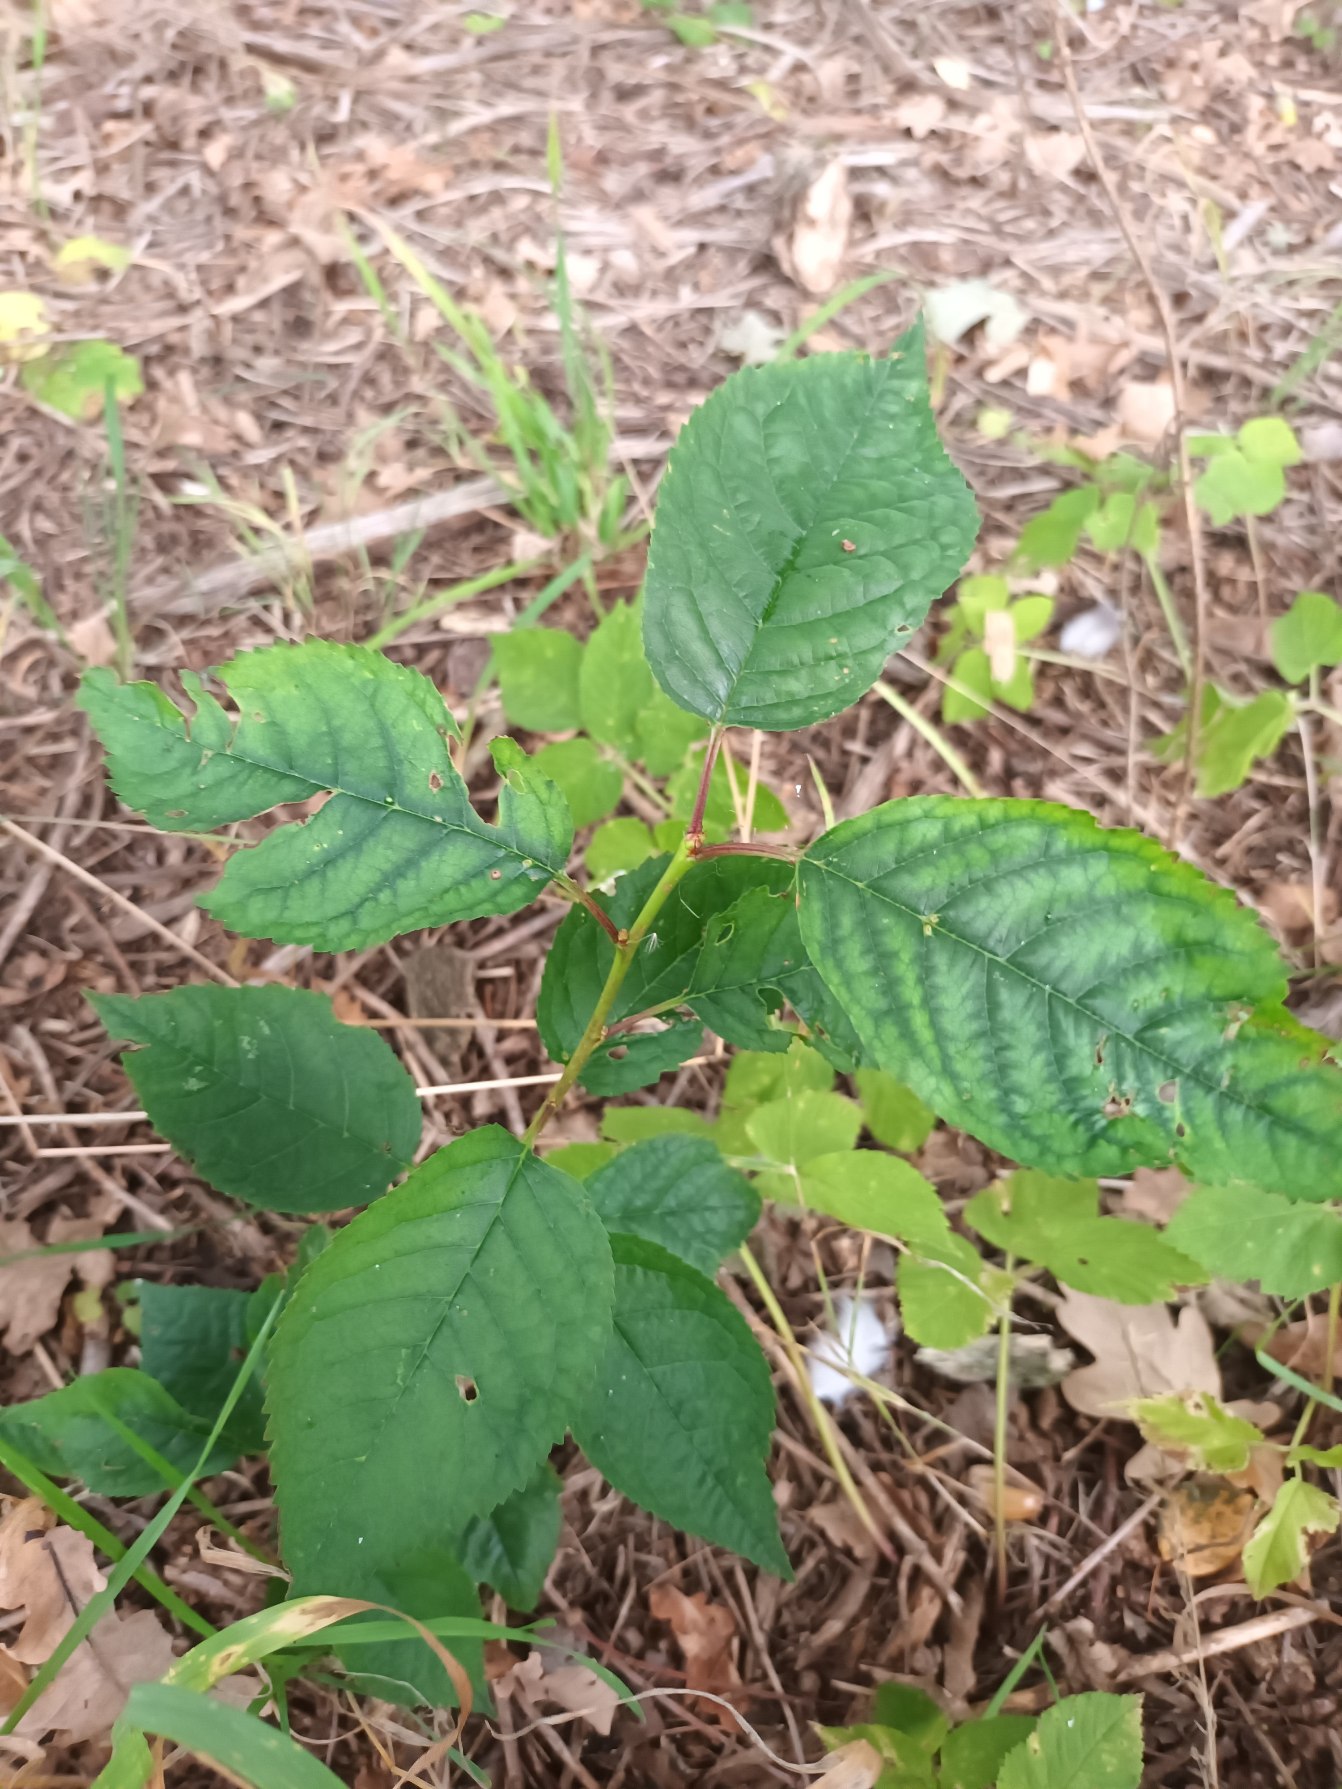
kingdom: Plantae
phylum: Tracheophyta
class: Magnoliopsida
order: Rosales
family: Rosaceae
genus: Prunus
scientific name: Prunus avium
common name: Fugle-kirsebær
